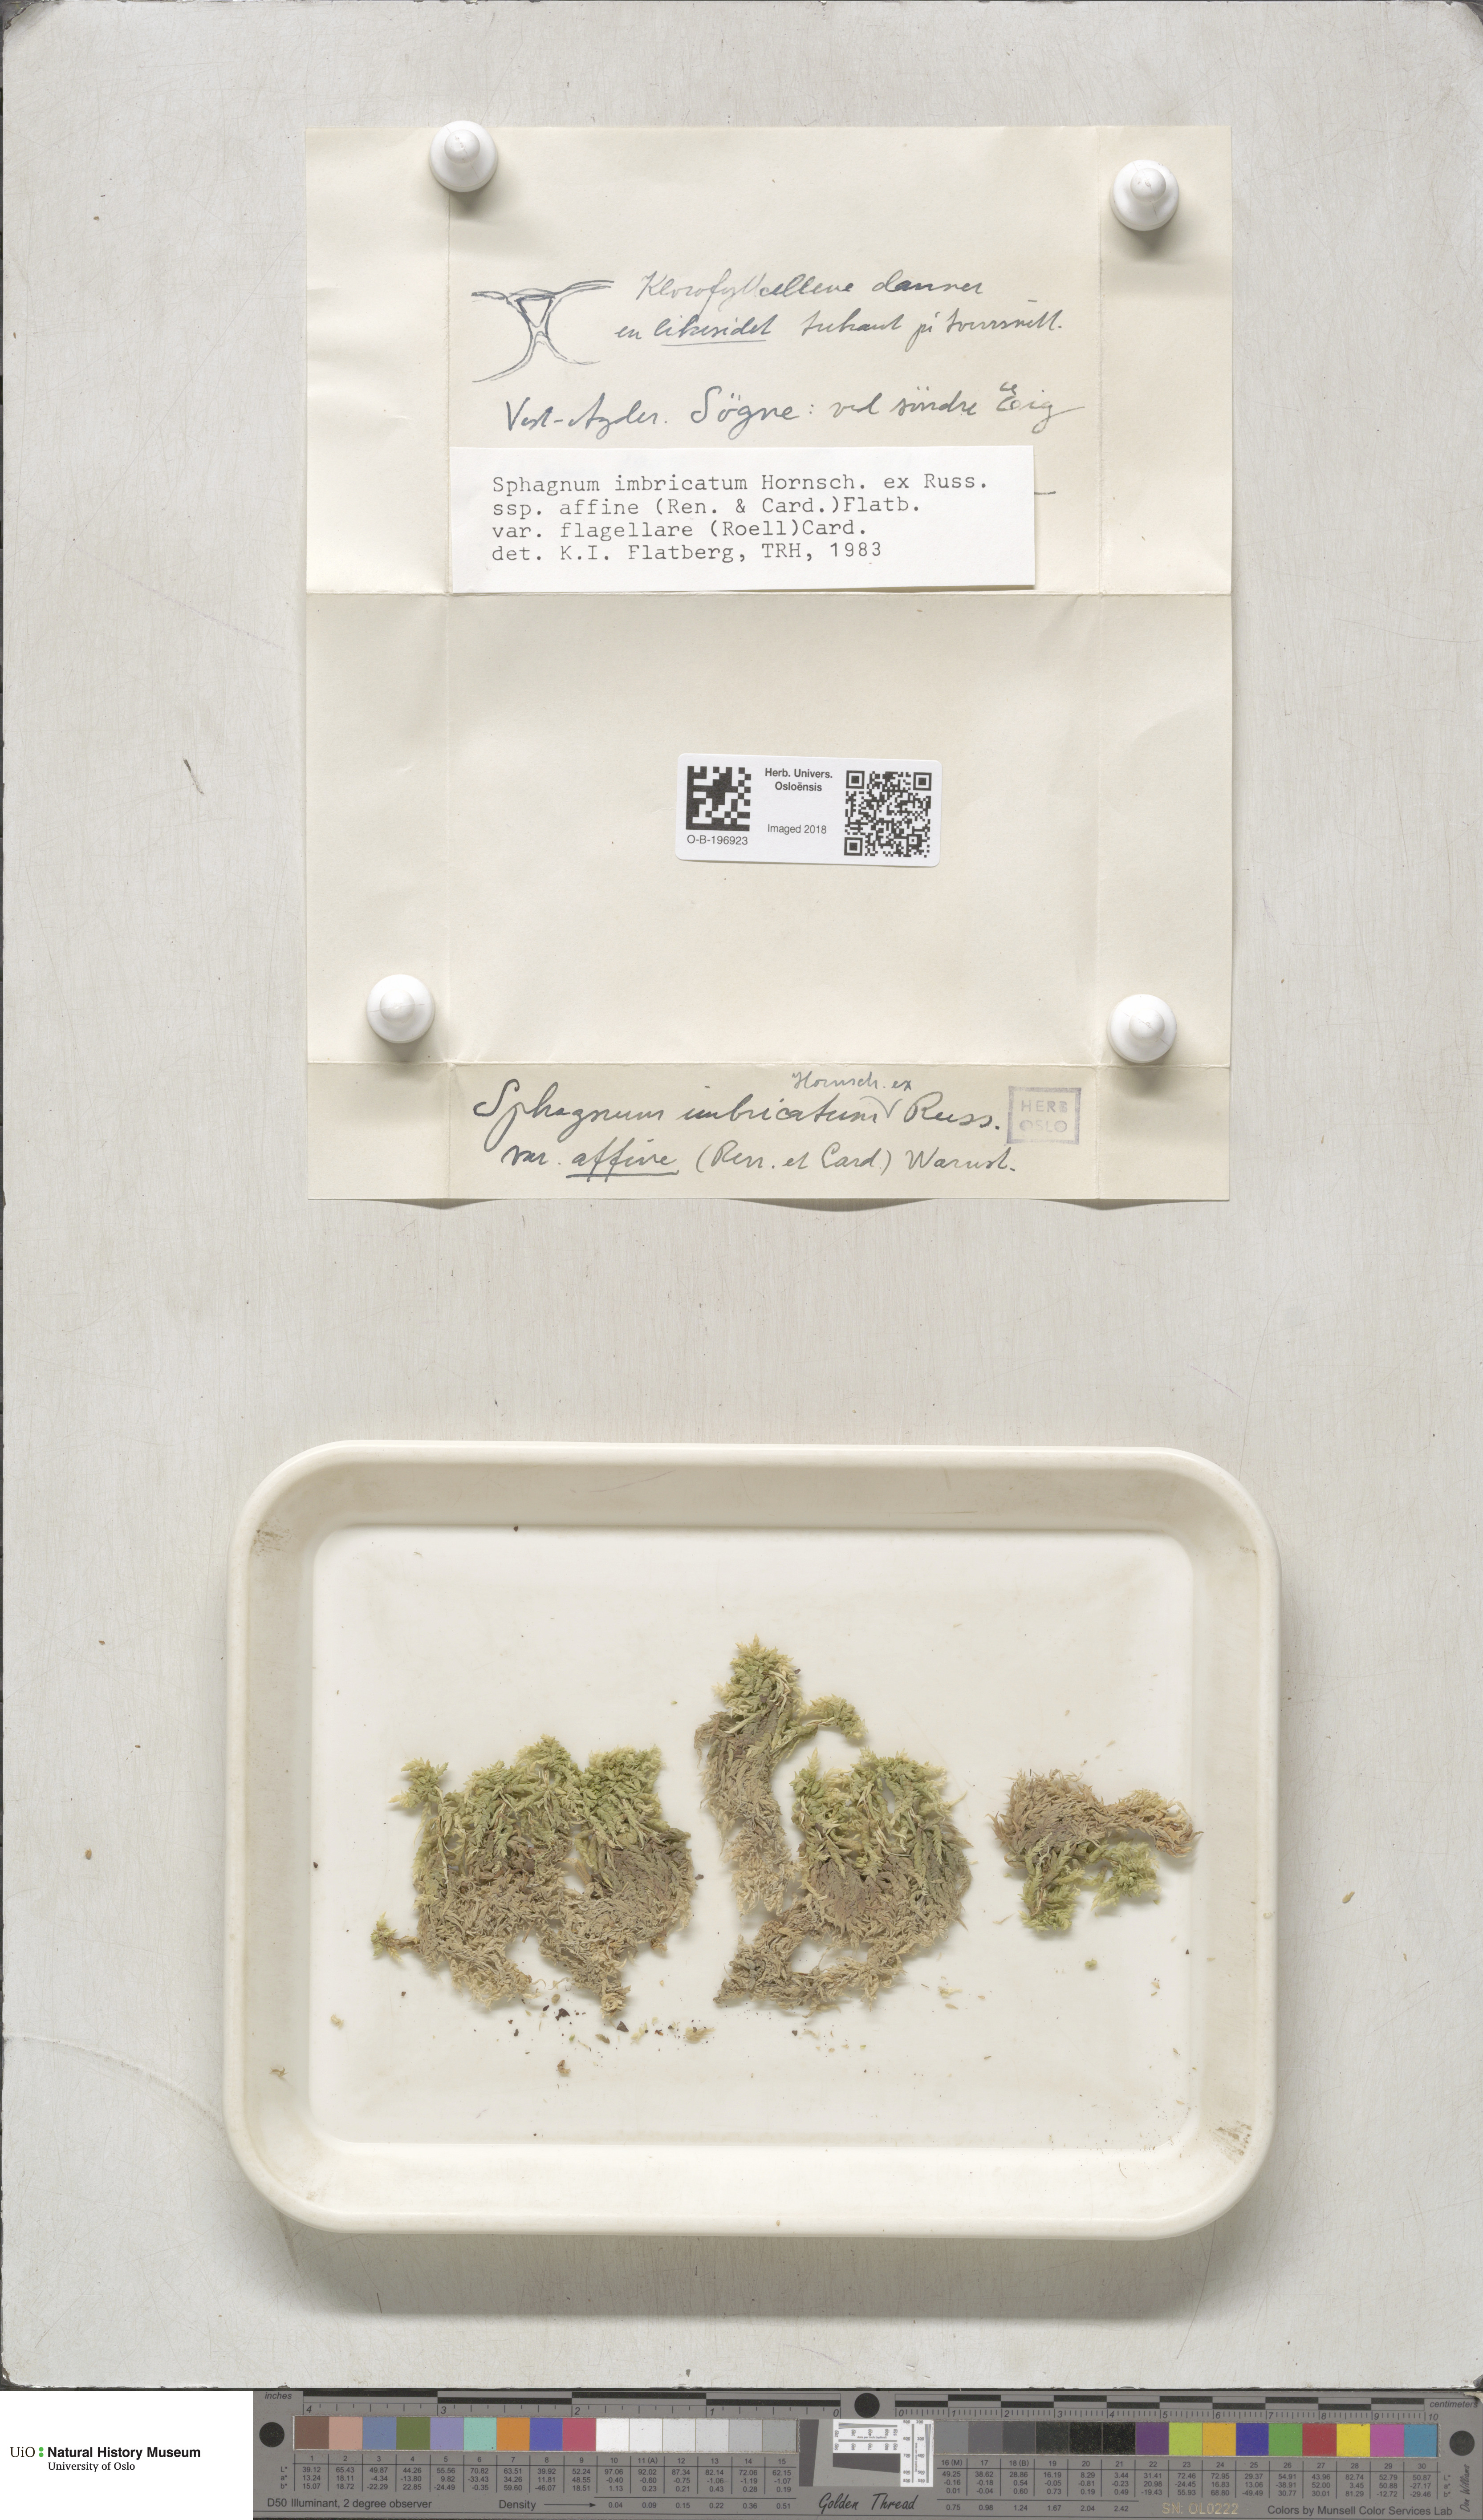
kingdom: Plantae
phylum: Bryophyta
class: Sphagnopsida
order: Sphagnales
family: Sphagnaceae
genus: Sphagnum
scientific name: Sphagnum affine
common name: Imbricate peat moss
